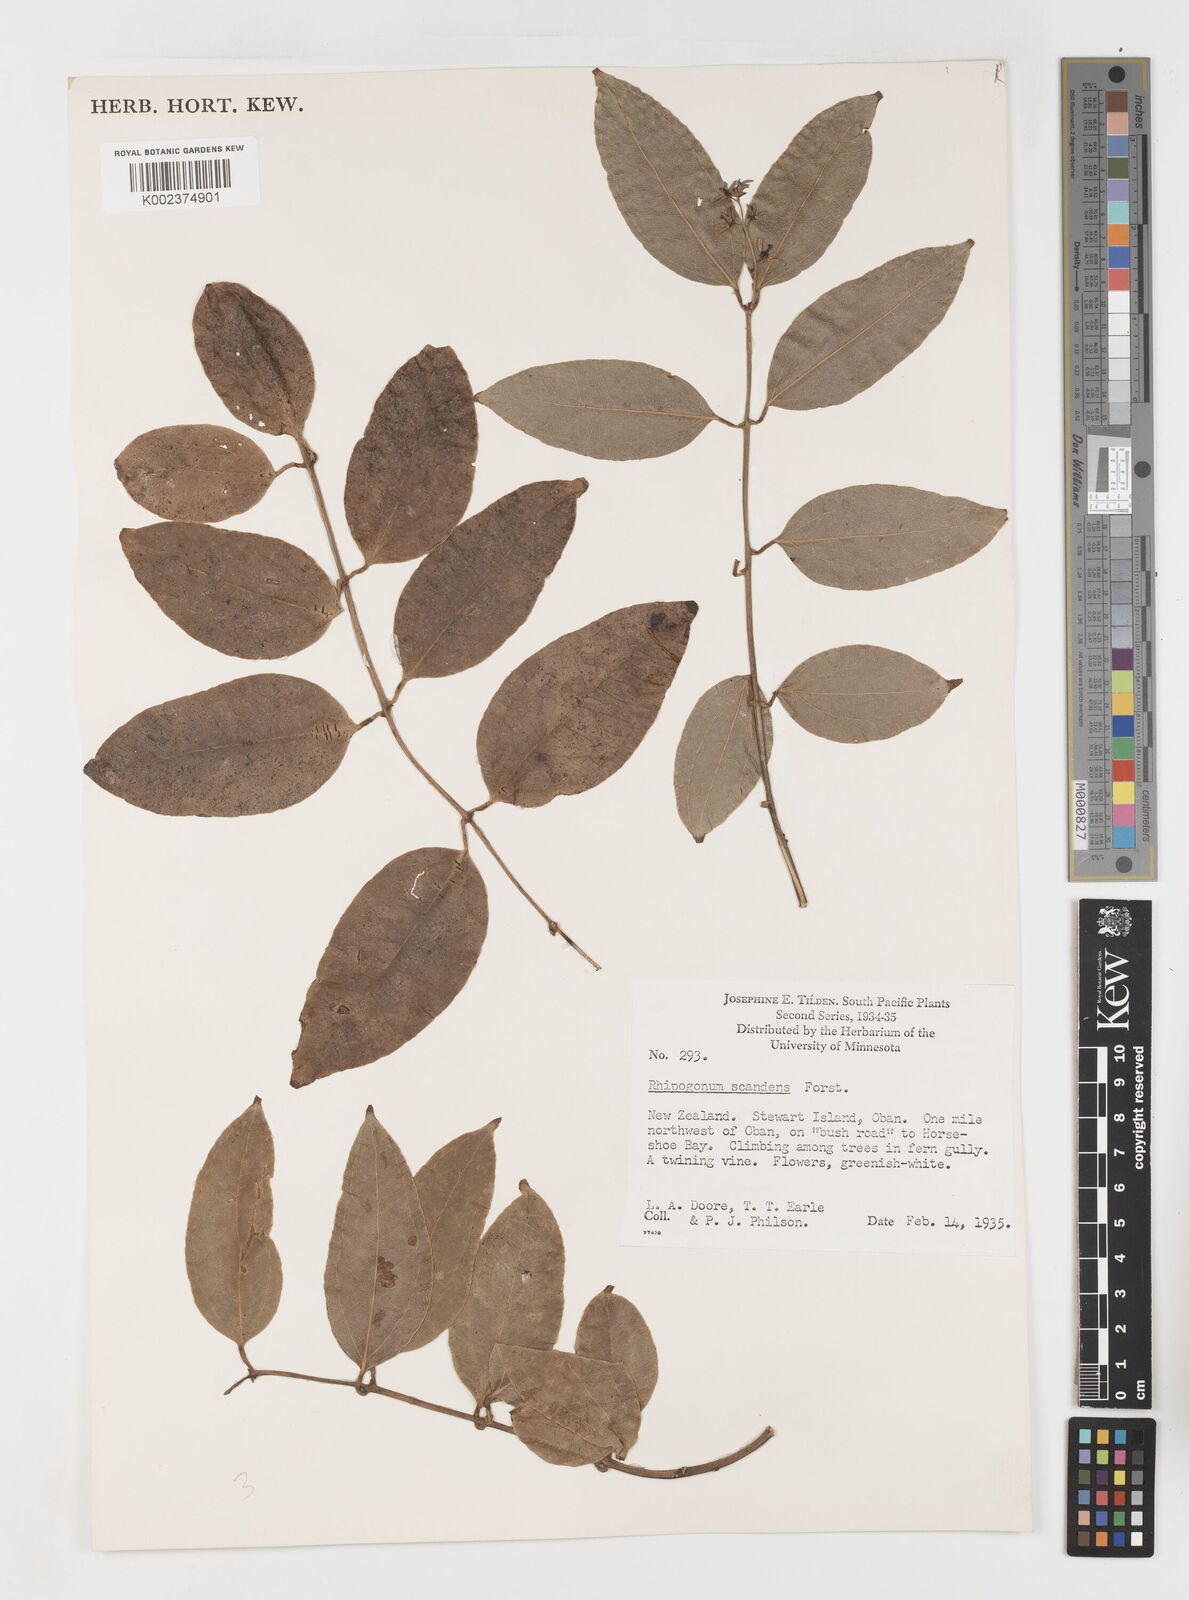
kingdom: Plantae
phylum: Tracheophyta
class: Liliopsida
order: Liliales
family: Ripogonaceae
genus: Ripogonum
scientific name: Ripogonum scandens
